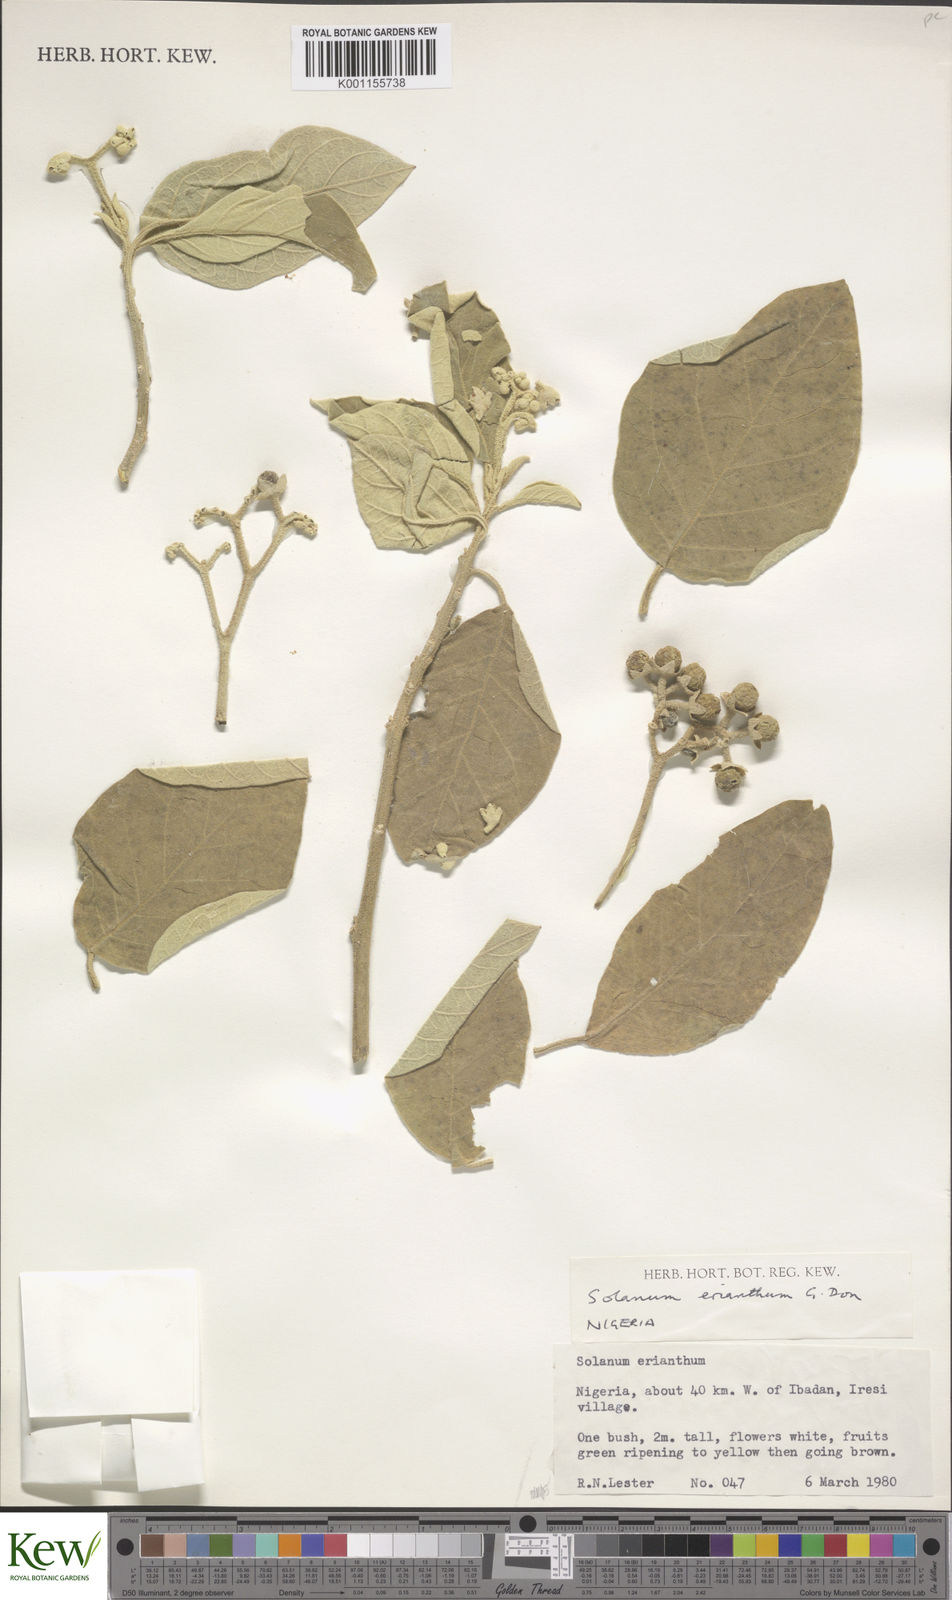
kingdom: Plantae
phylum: Tracheophyta
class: Magnoliopsida
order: Solanales
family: Solanaceae
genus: Solanum
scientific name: Solanum erianthum
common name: Tobacco-tree
